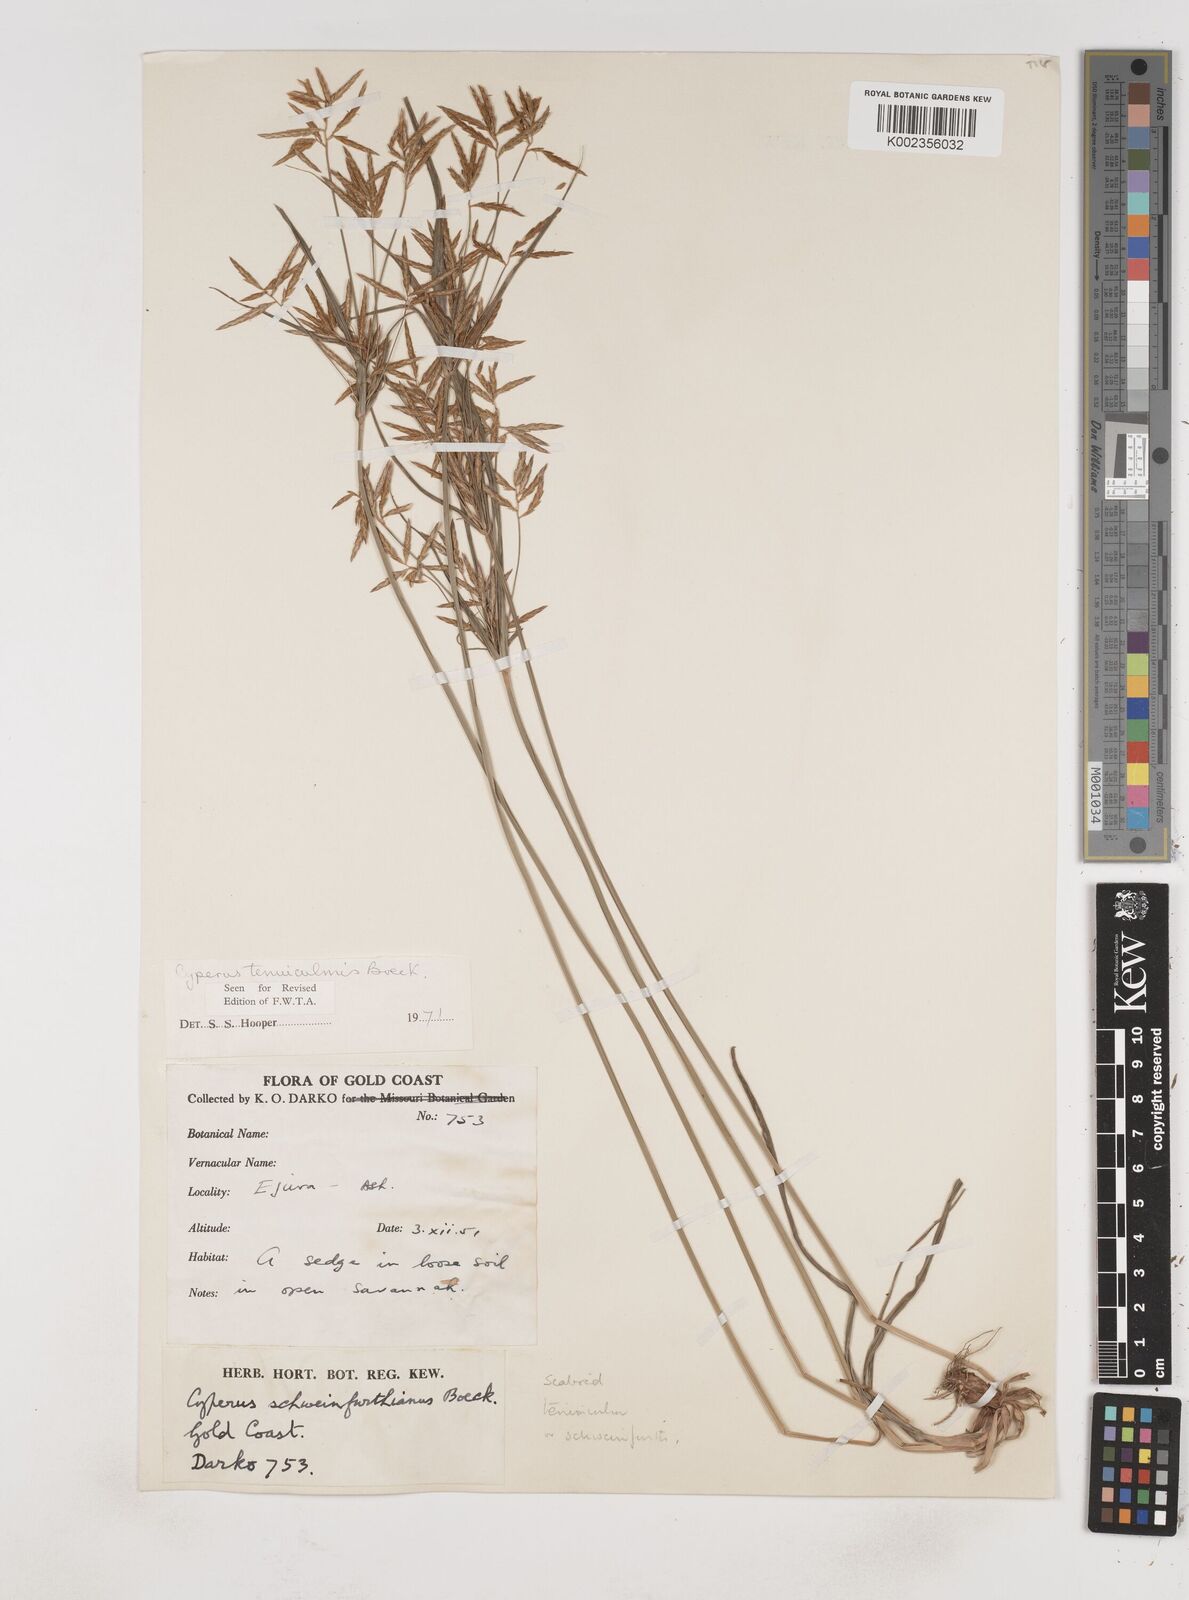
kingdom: Plantae
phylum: Tracheophyta
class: Liliopsida
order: Poales
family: Cyperaceae
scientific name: Cyperaceae
